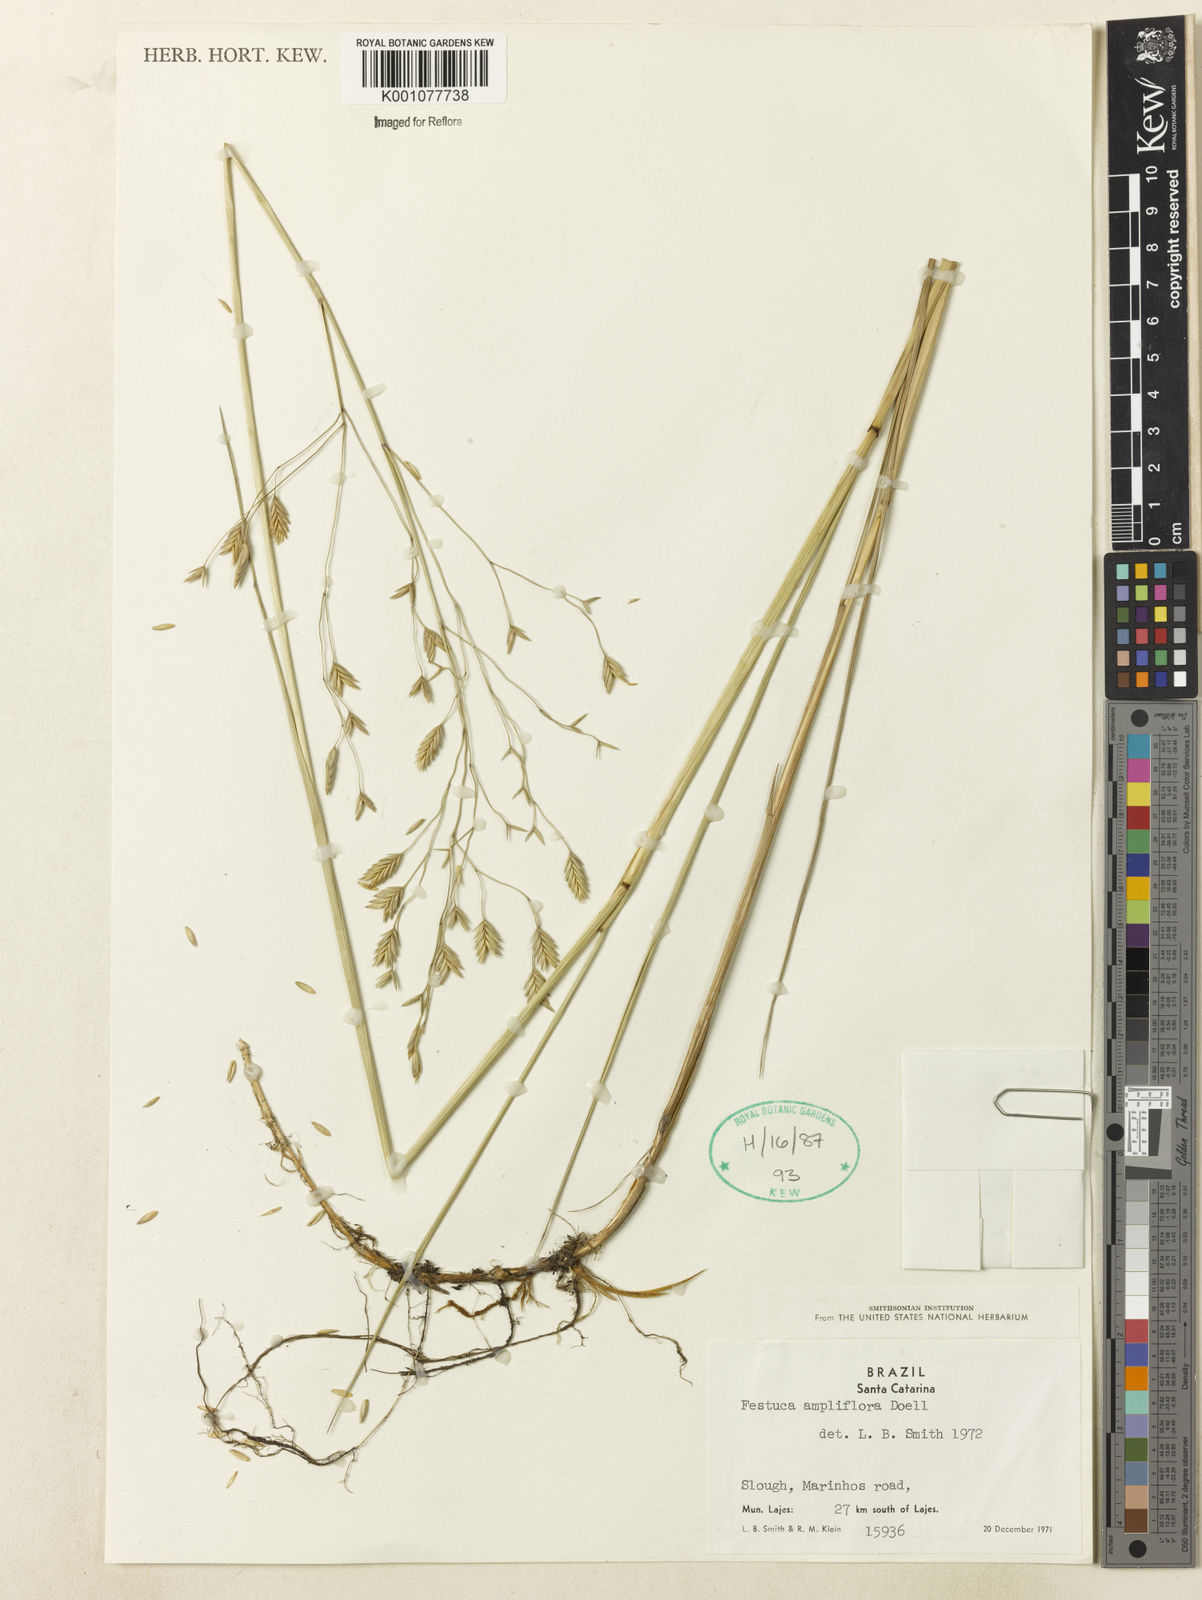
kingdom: Plantae
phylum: Tracheophyta
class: Liliopsida
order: Poales
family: Poaceae
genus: Festuca
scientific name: Festuca fimbriata
